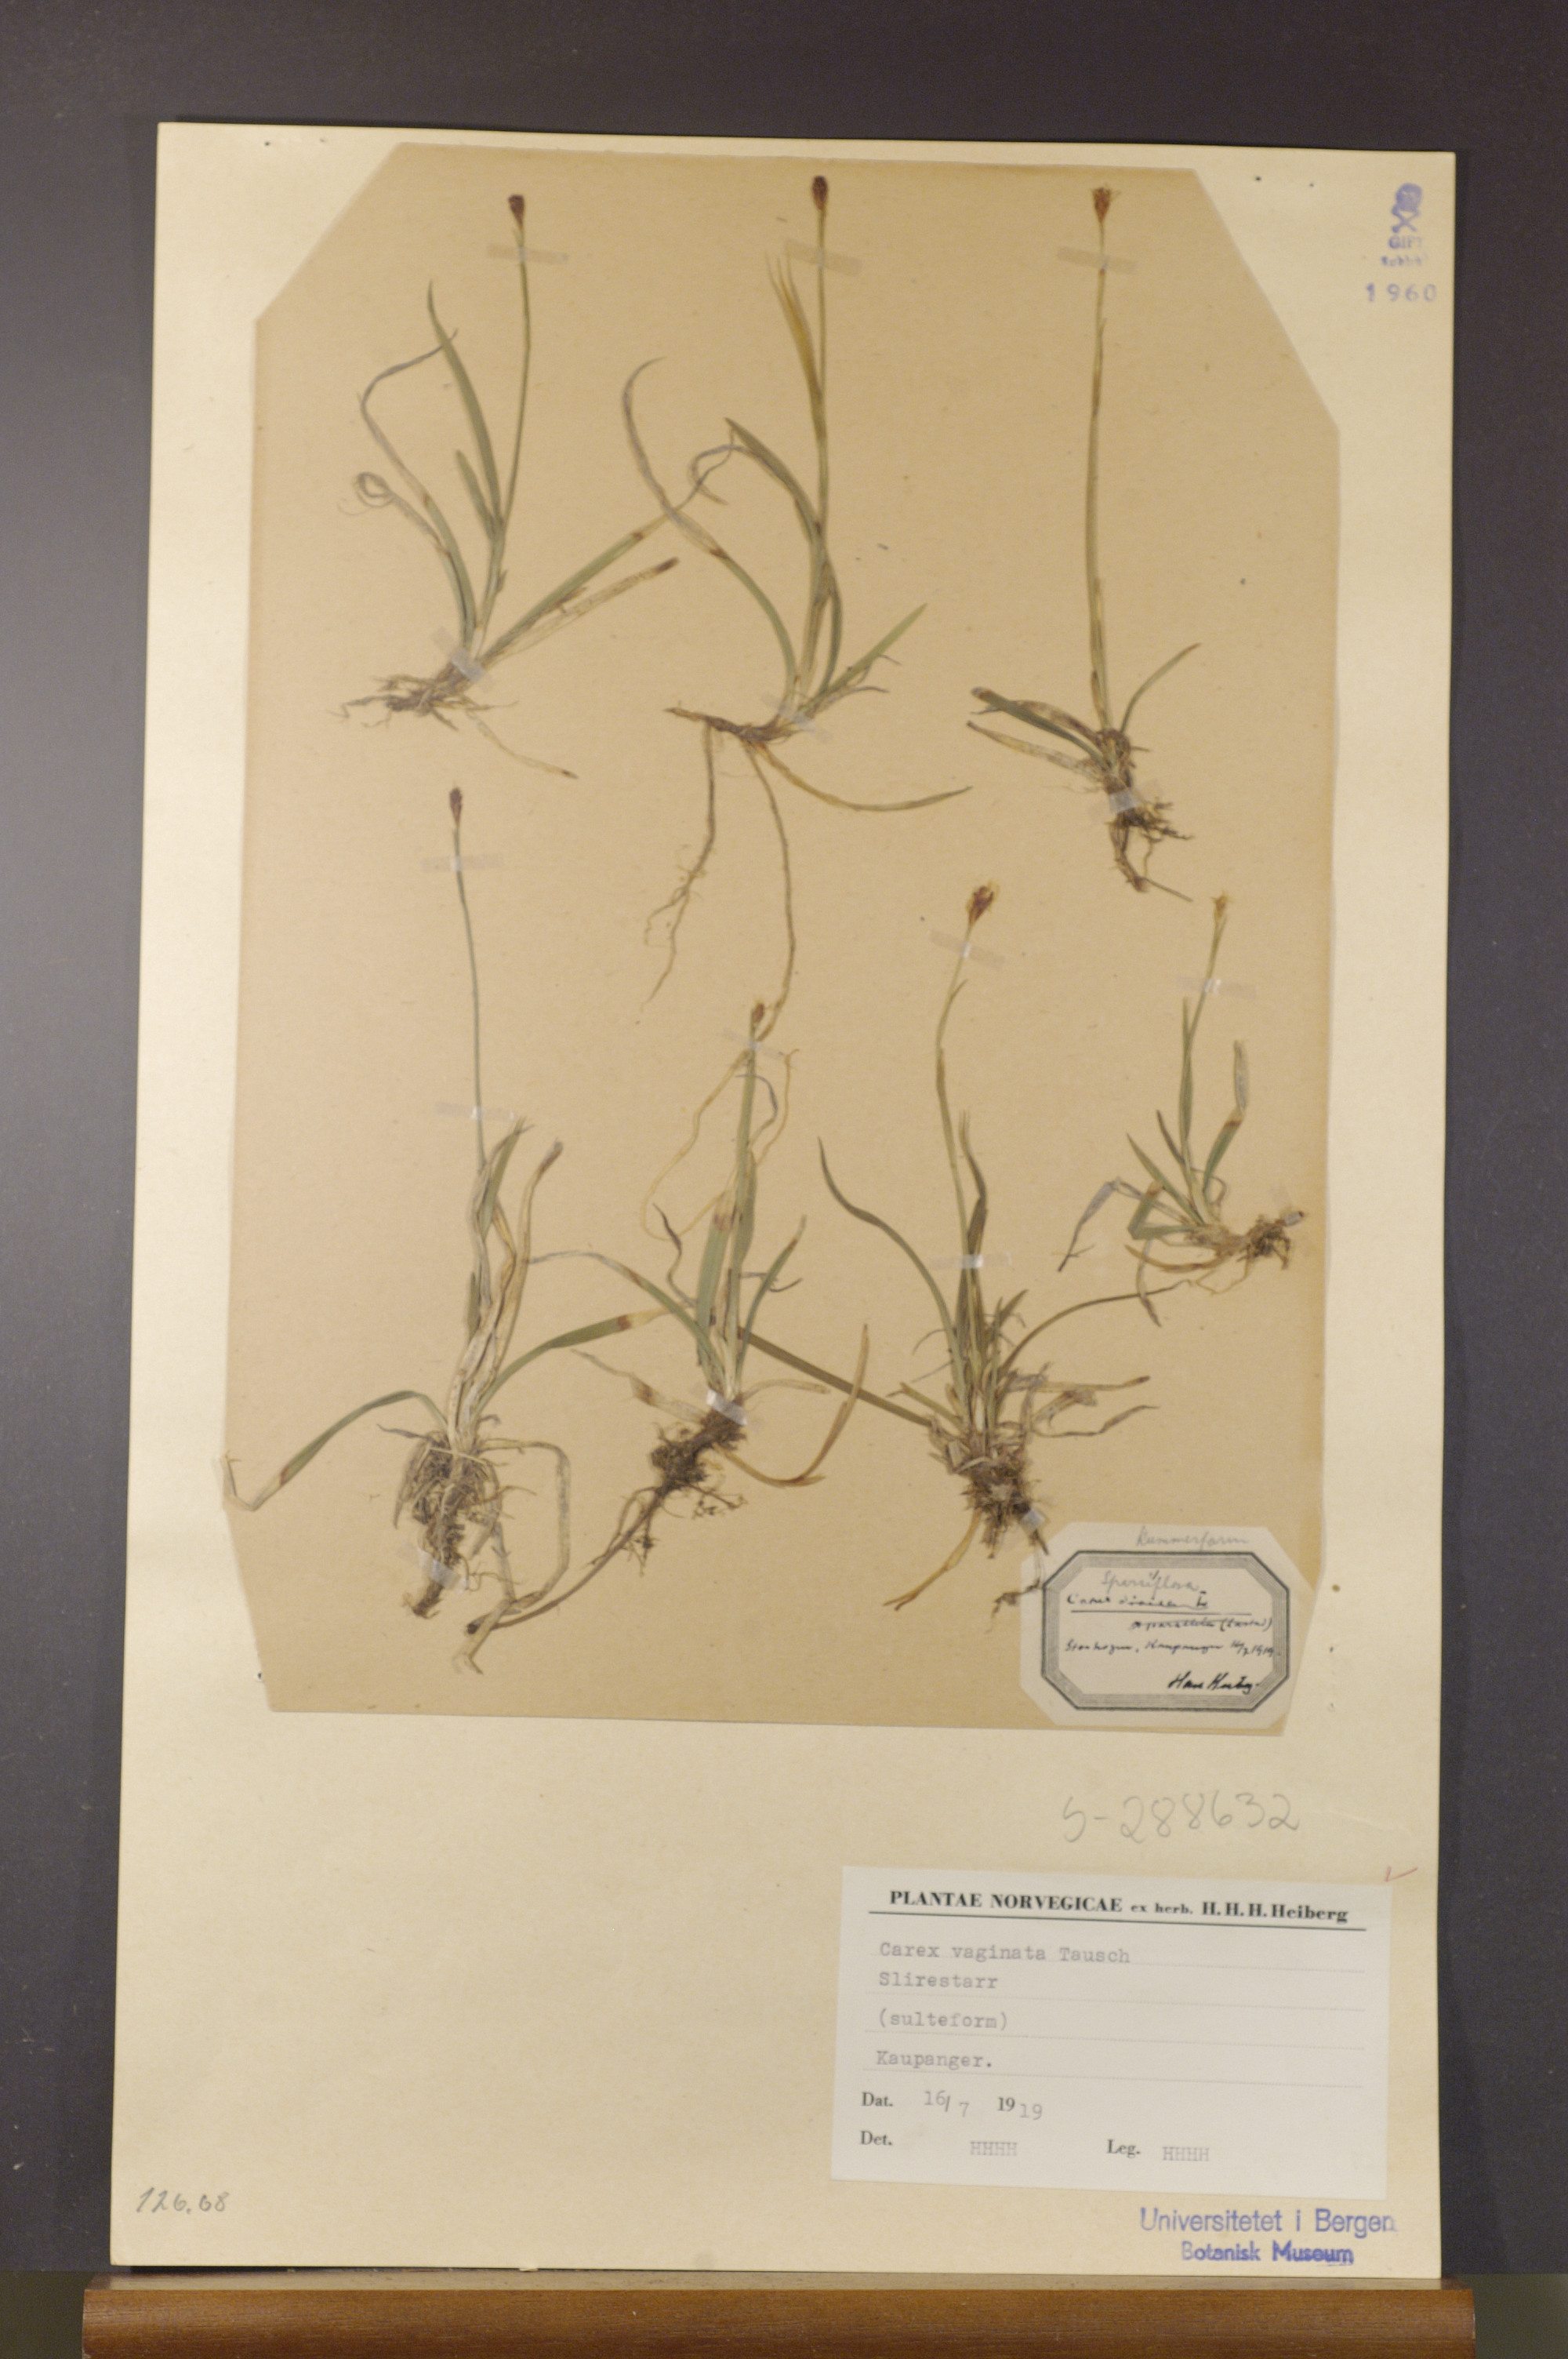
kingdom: Plantae
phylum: Tracheophyta
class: Liliopsida
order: Poales
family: Cyperaceae
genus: Carex
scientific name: Carex vaginata
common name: Sheathed sedge
